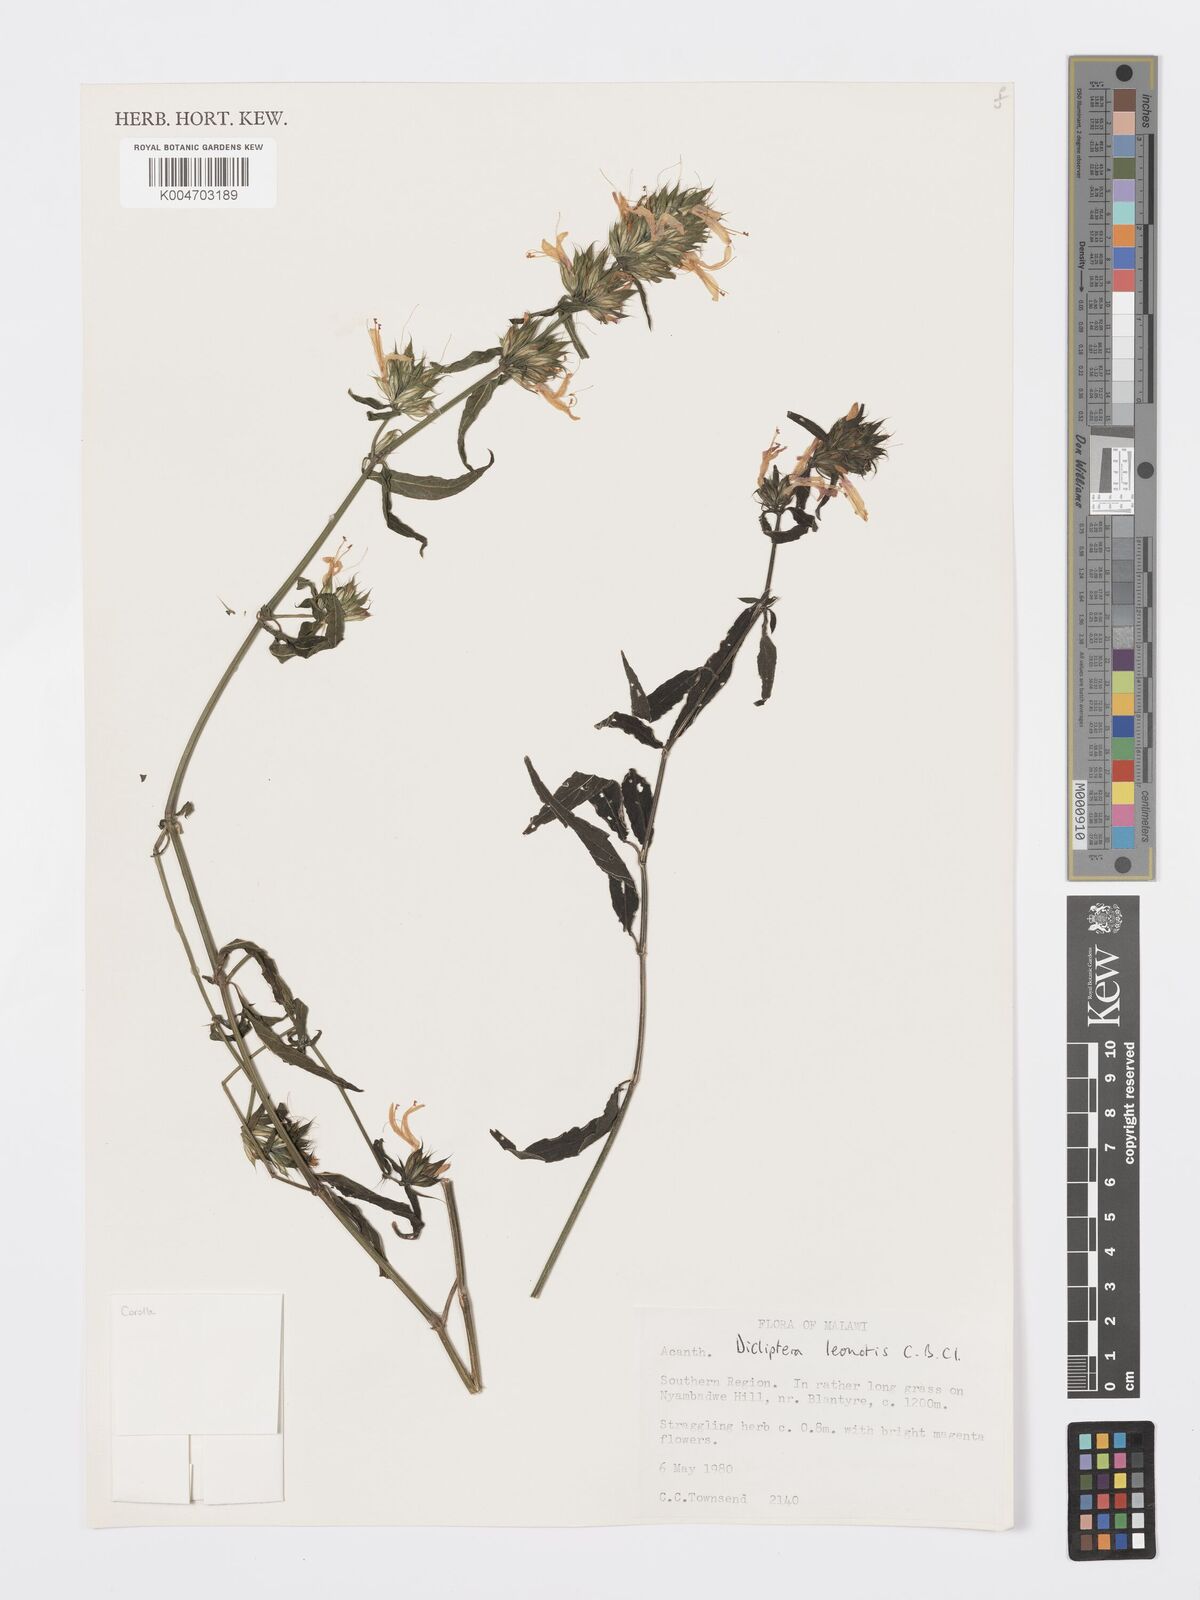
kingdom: Plantae
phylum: Tracheophyta
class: Magnoliopsida
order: Lamiales
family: Acanthaceae
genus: Dicliptera
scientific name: Dicliptera clinopodia
